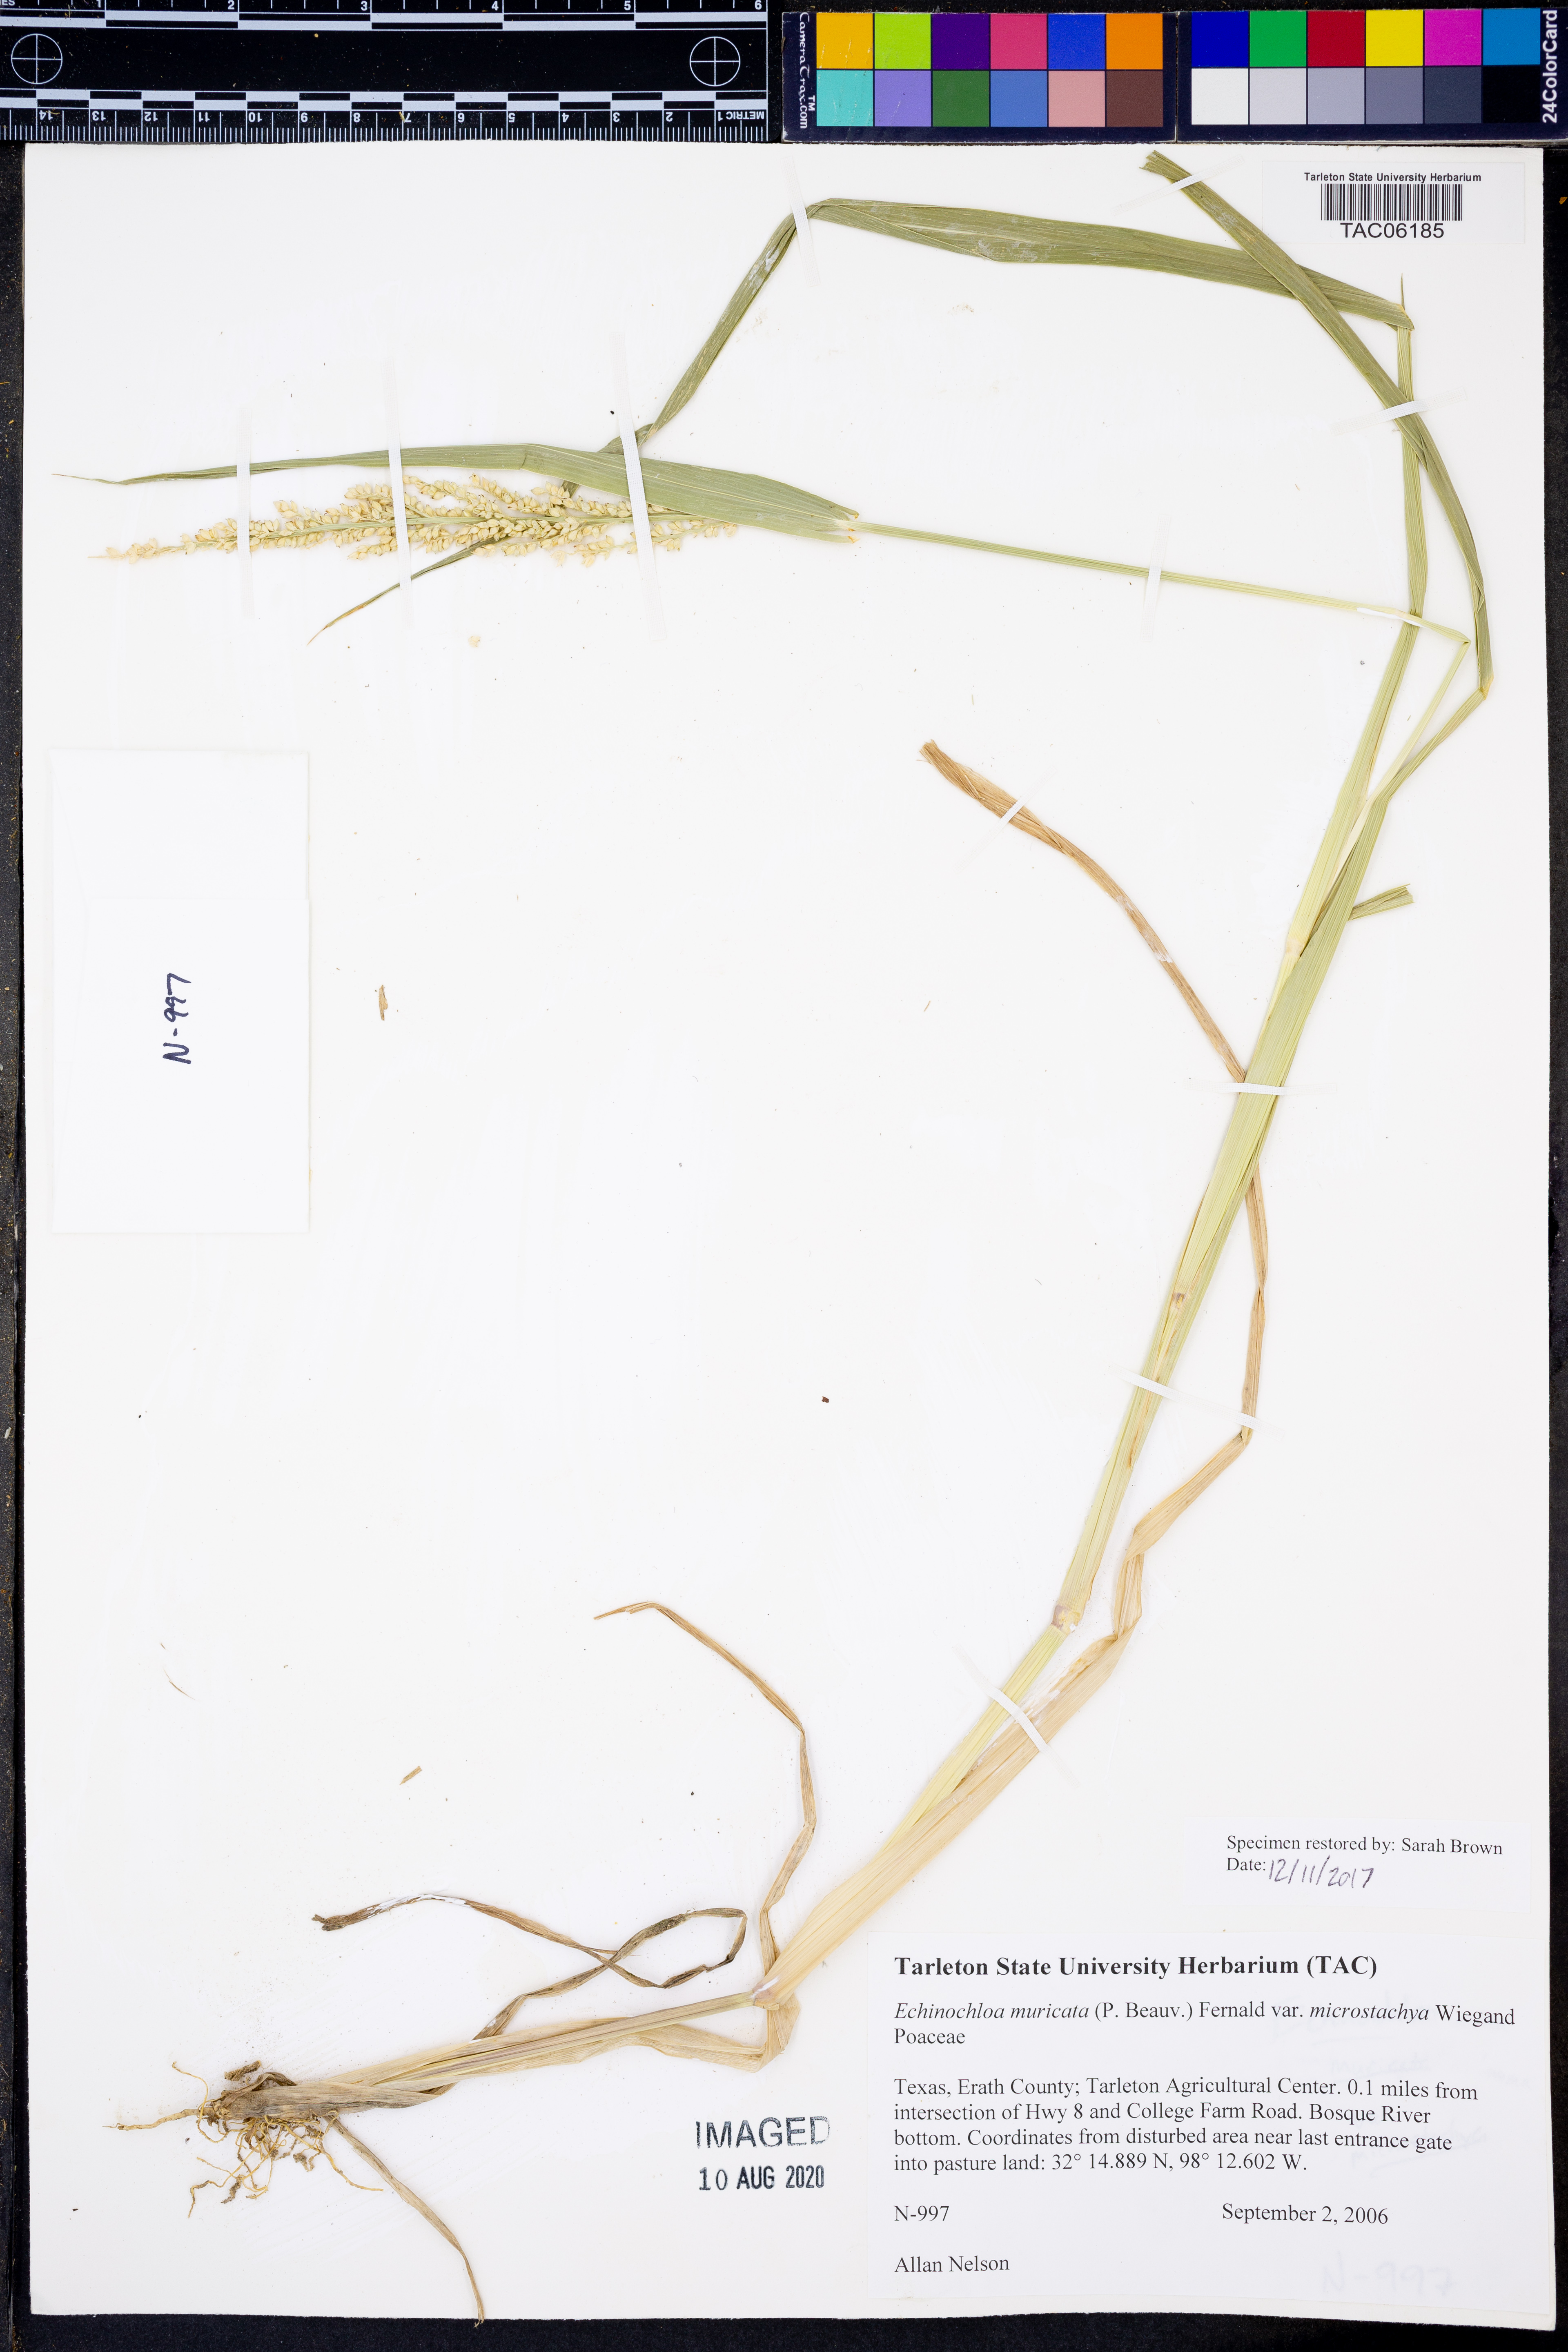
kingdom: Plantae
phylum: Tracheophyta
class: Liliopsida
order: Poales
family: Poaceae
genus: Echinochloa
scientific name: Echinochloa muricata
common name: American barnyard grass
